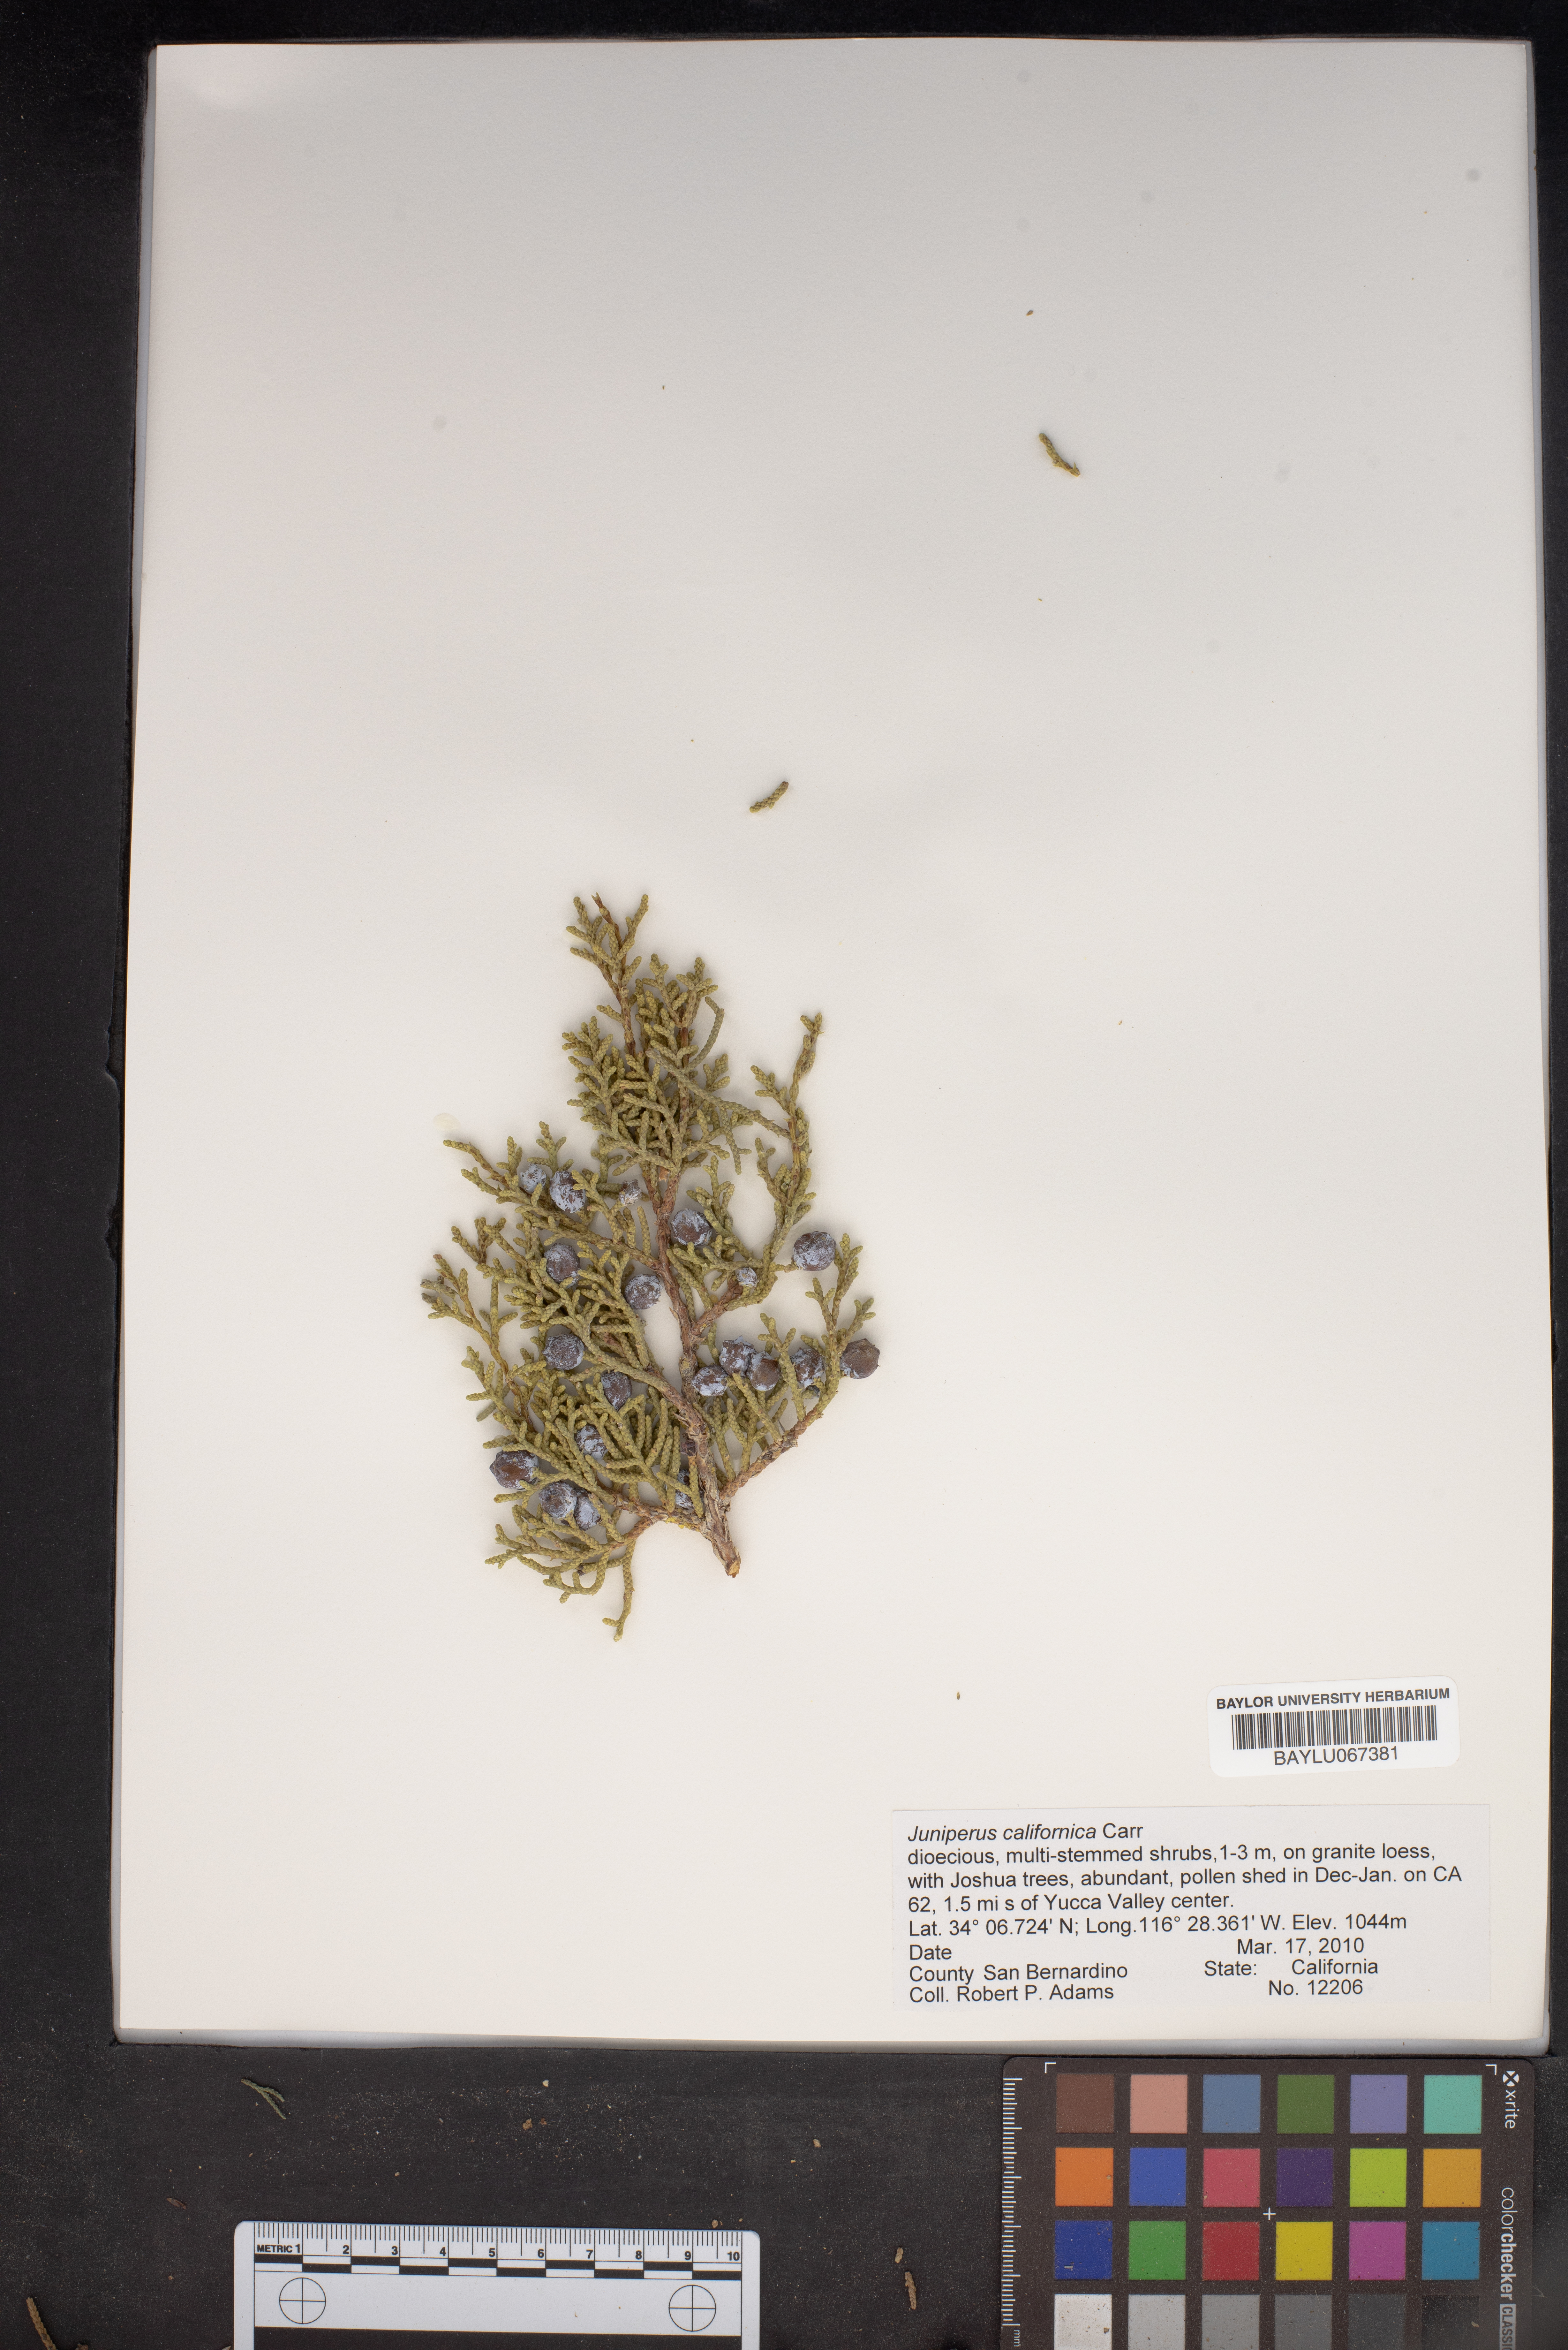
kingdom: Plantae
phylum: Tracheophyta
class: Pinopsida
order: Pinales
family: Cupressaceae
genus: Juniperus
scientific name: Juniperus californica
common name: California juniper
